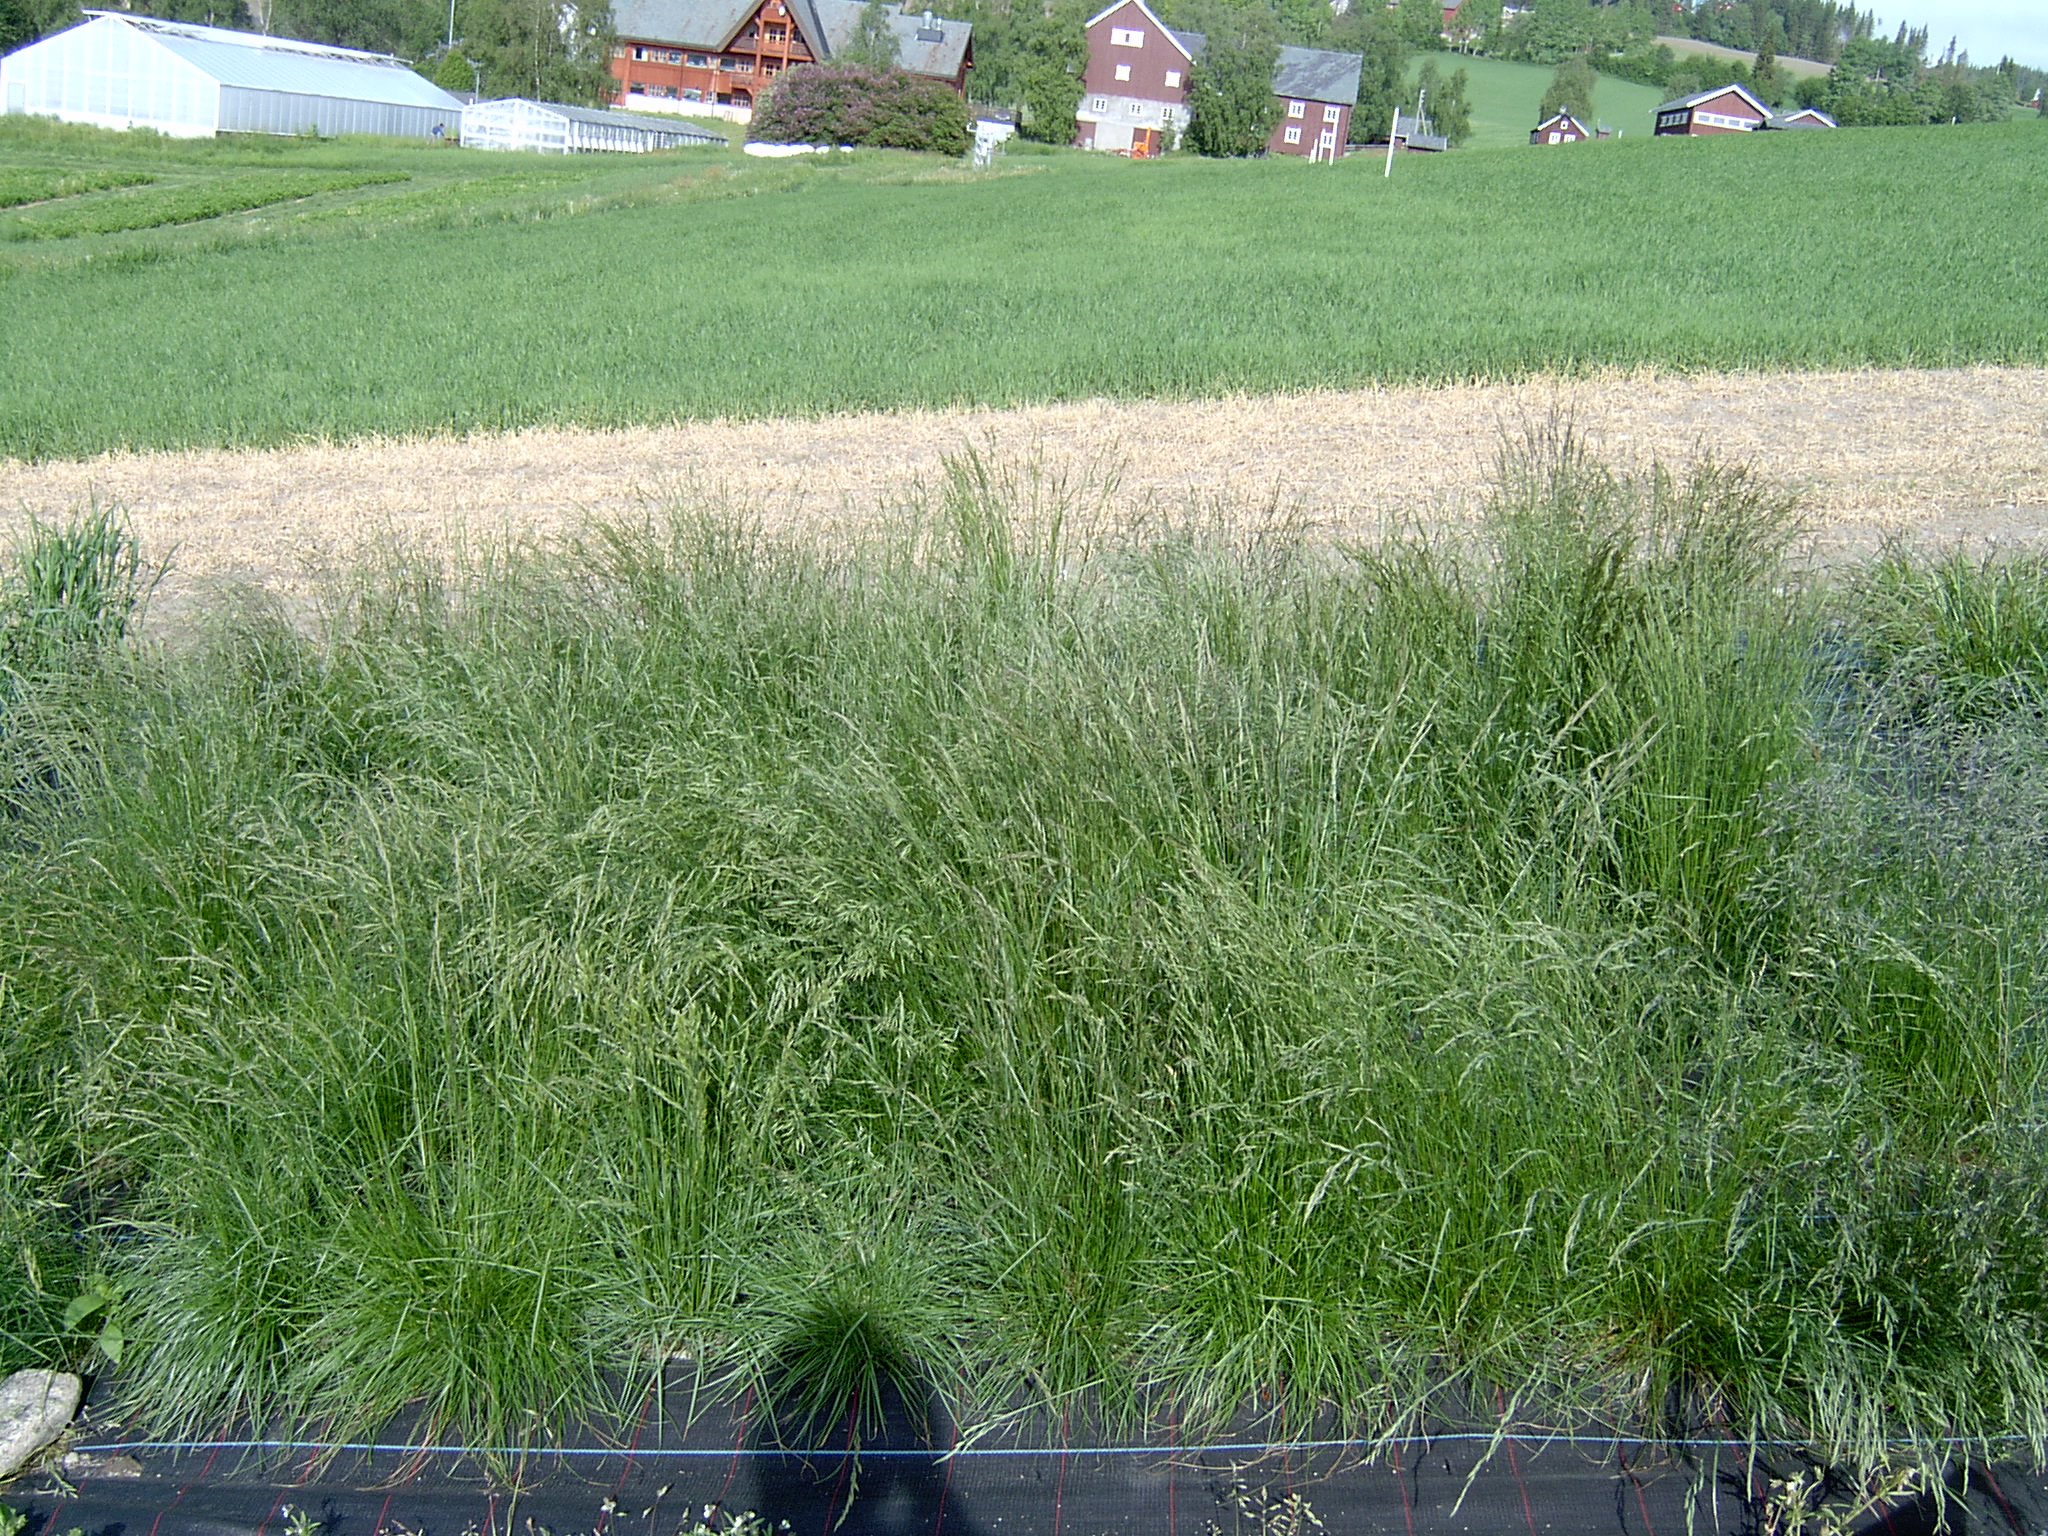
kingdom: Plantae
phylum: Tracheophyta
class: Liliopsida
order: Poales
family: Poaceae
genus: Festuca
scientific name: Festuca rubra
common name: Red fescue
